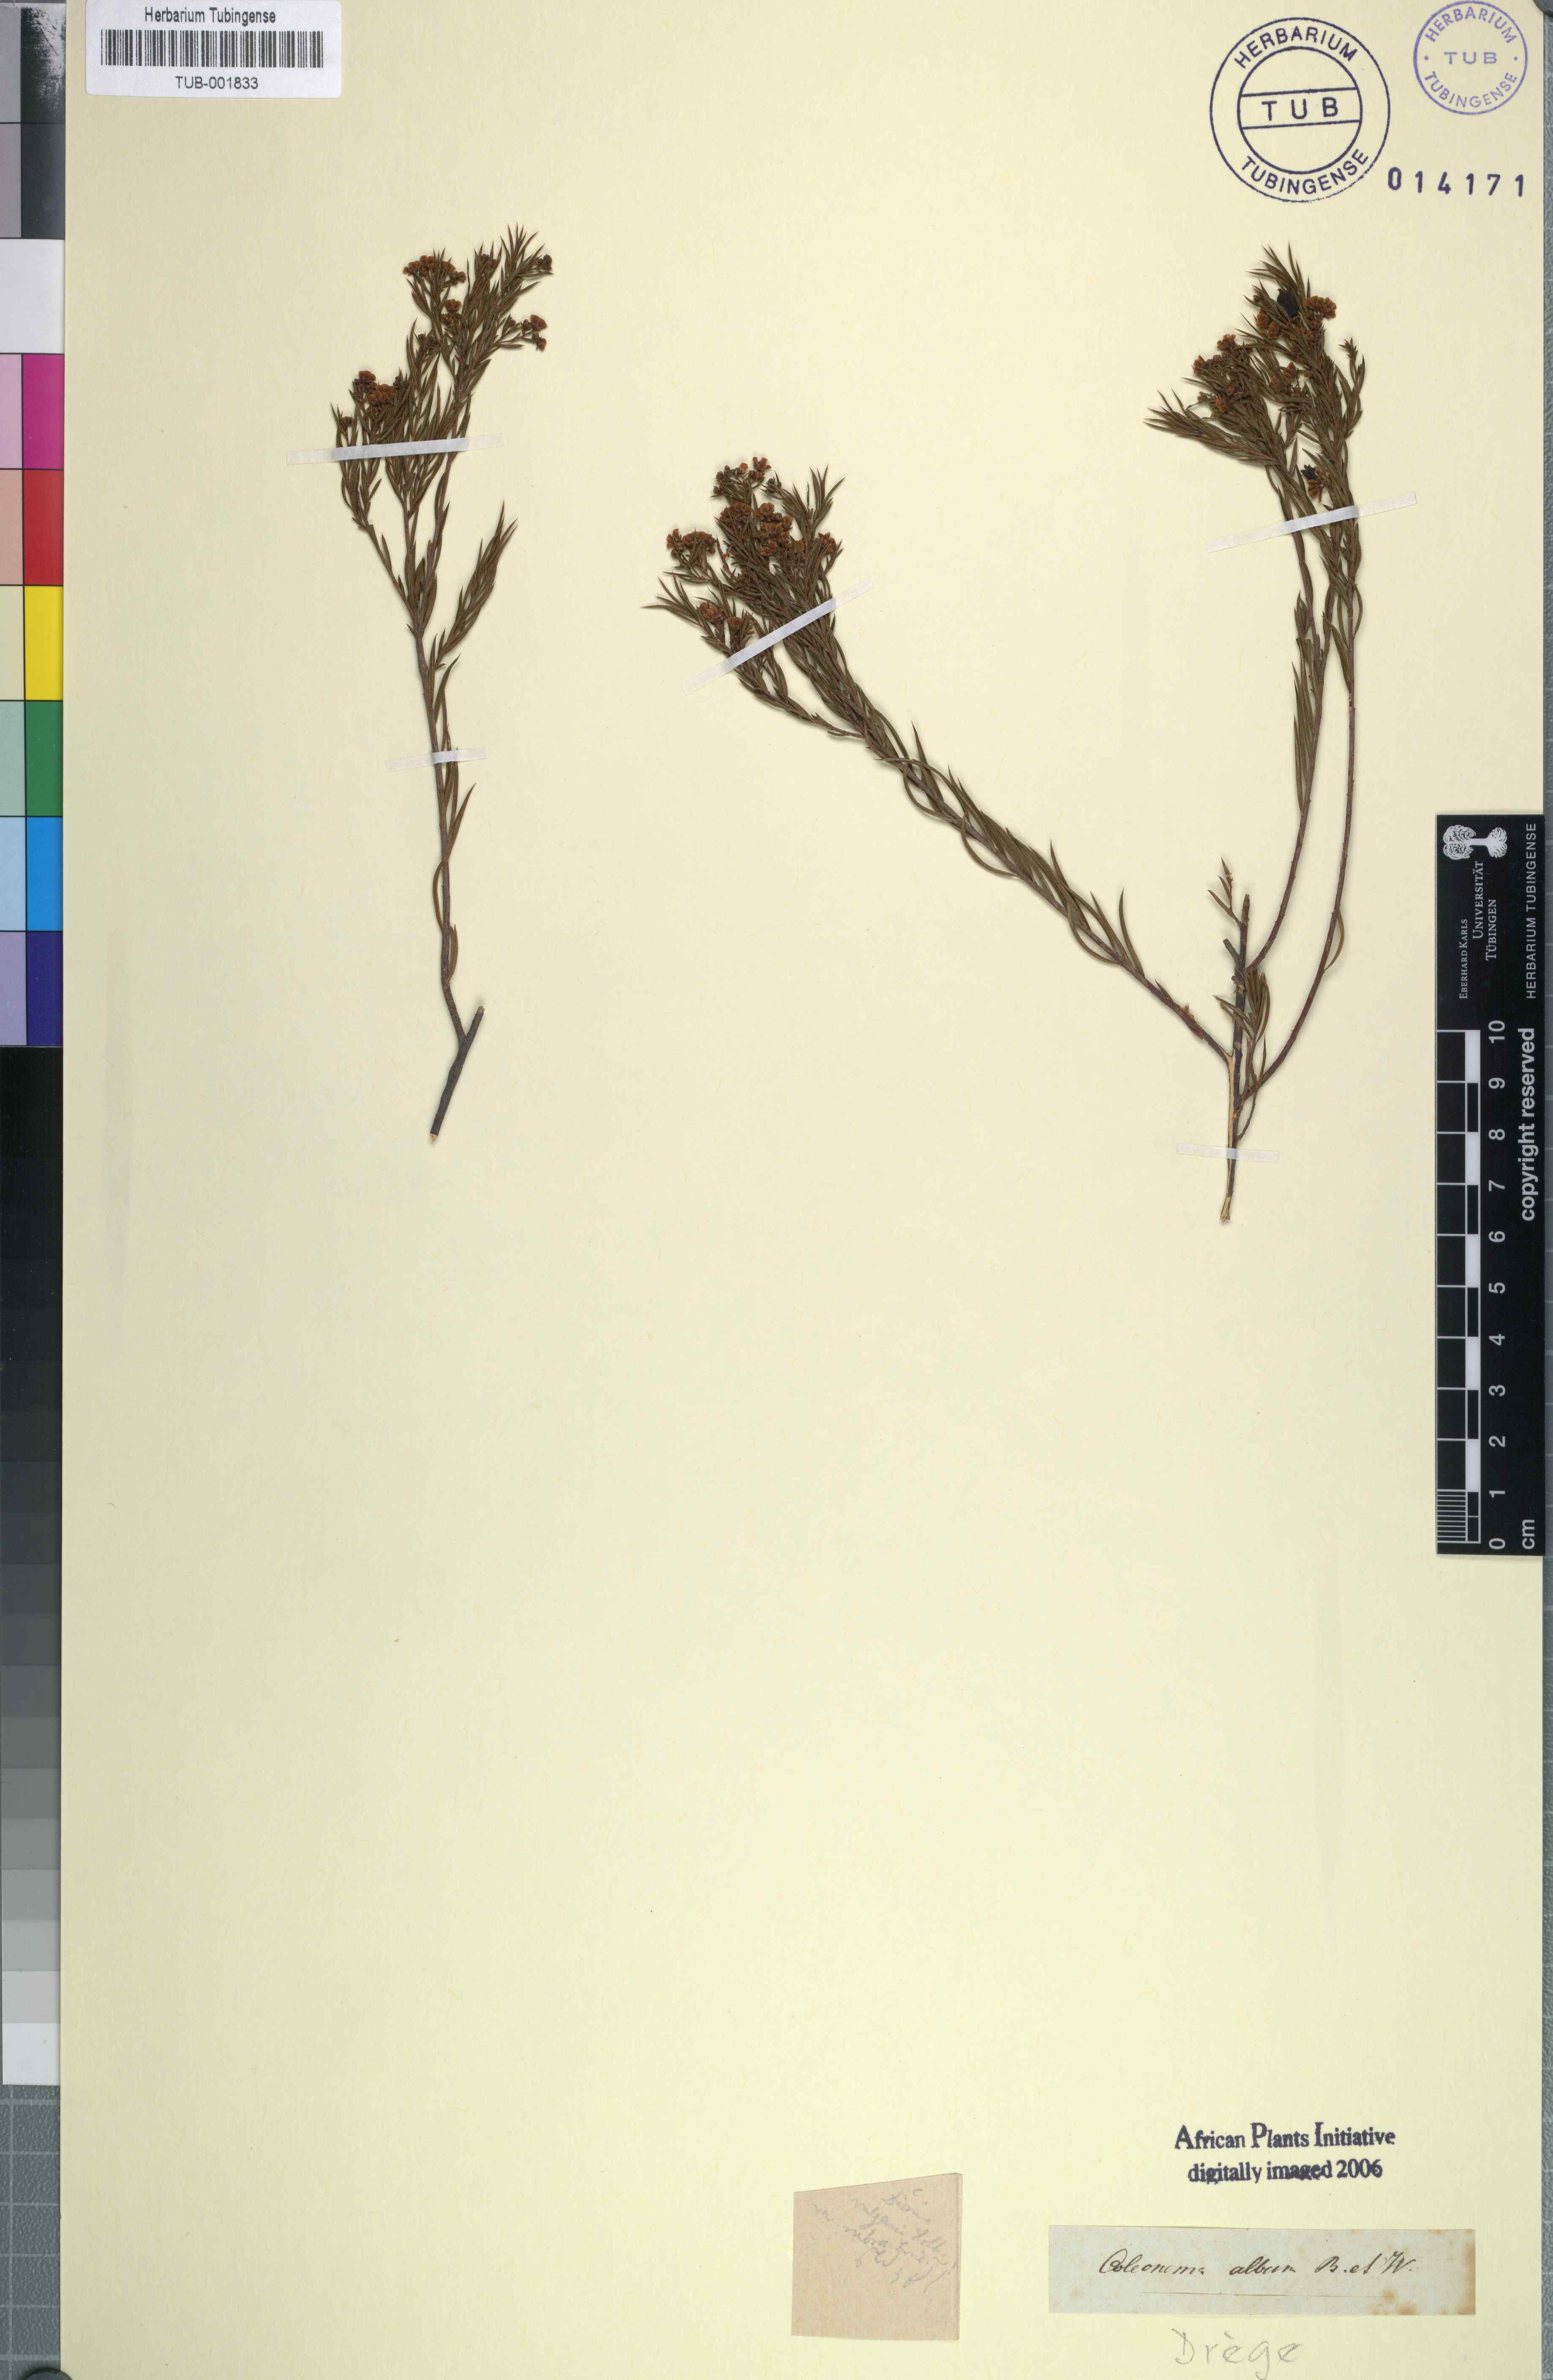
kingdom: Plantae
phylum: Tracheophyta
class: Magnoliopsida
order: Sapindales
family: Rutaceae
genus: Coleonema
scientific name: Coleonema album
